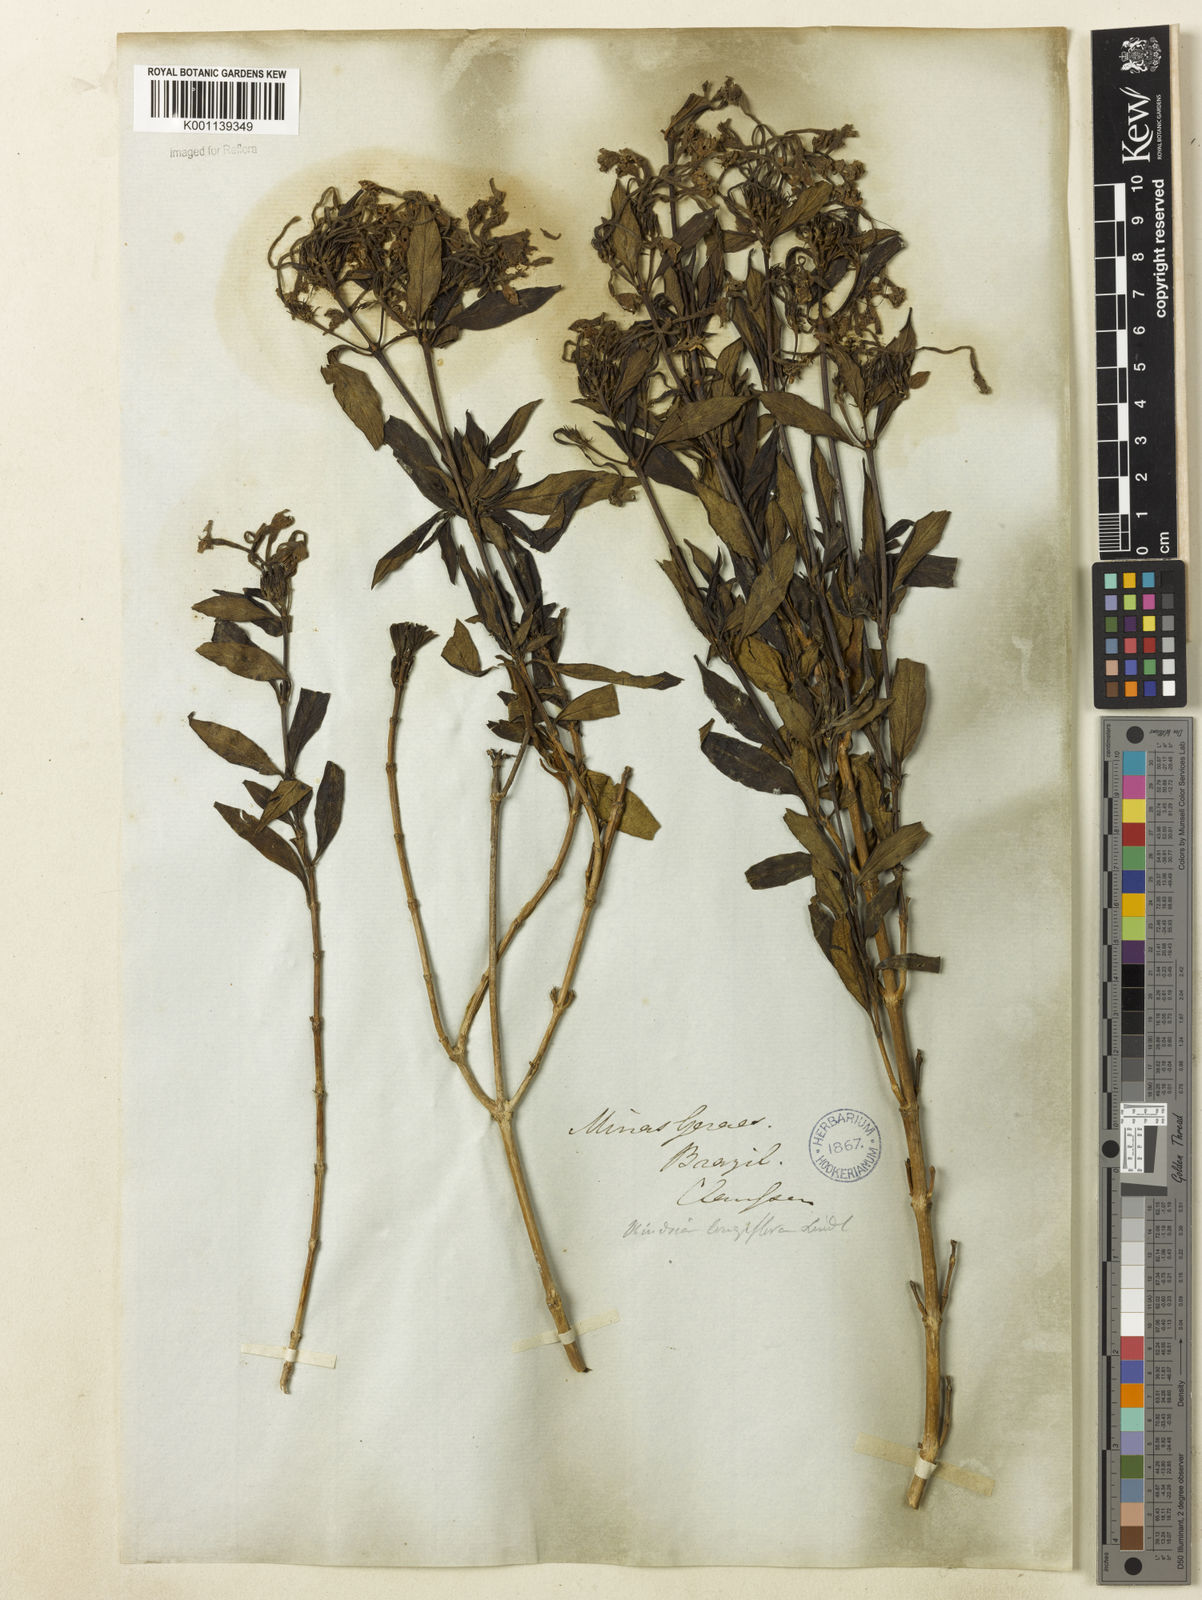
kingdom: Plantae
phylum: Tracheophyta
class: Magnoliopsida
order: Gentianales
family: Rubiaceae
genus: Hindsia
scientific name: Hindsia
